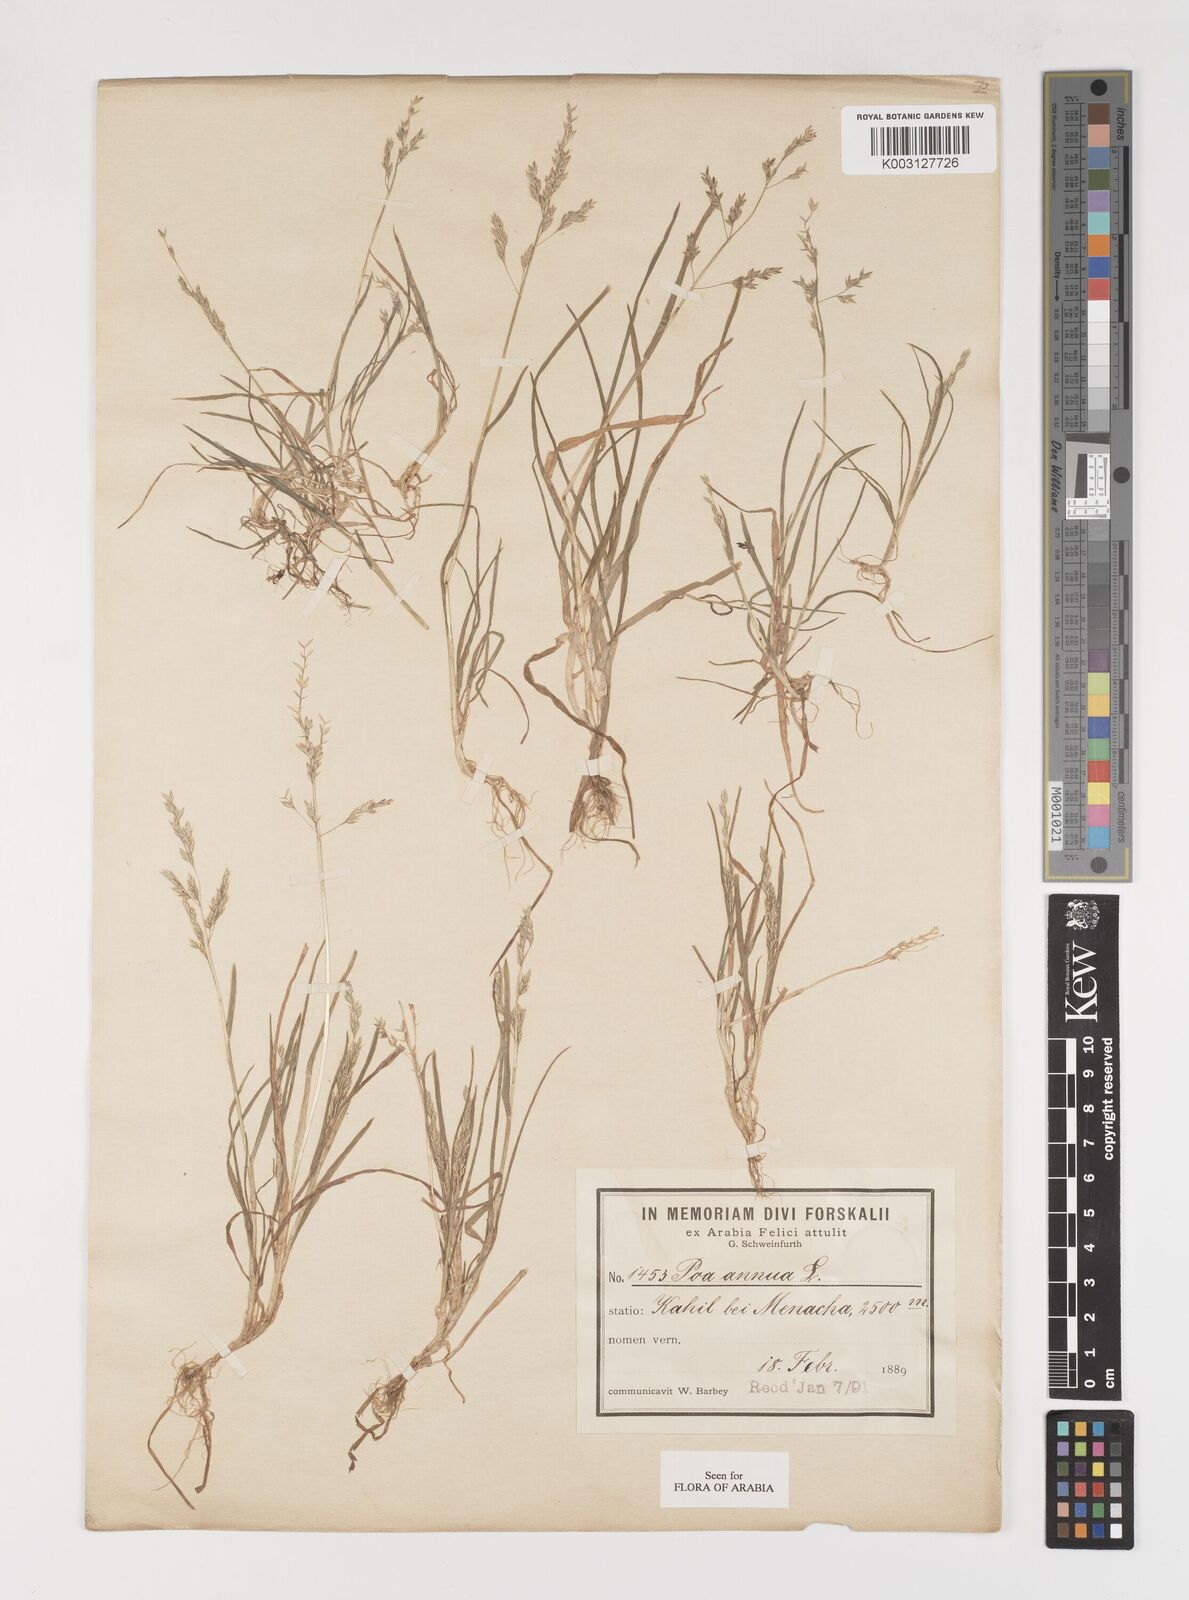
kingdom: Plantae
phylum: Tracheophyta
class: Liliopsida
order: Poales
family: Poaceae
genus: Poa
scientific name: Poa annua
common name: Annual bluegrass
